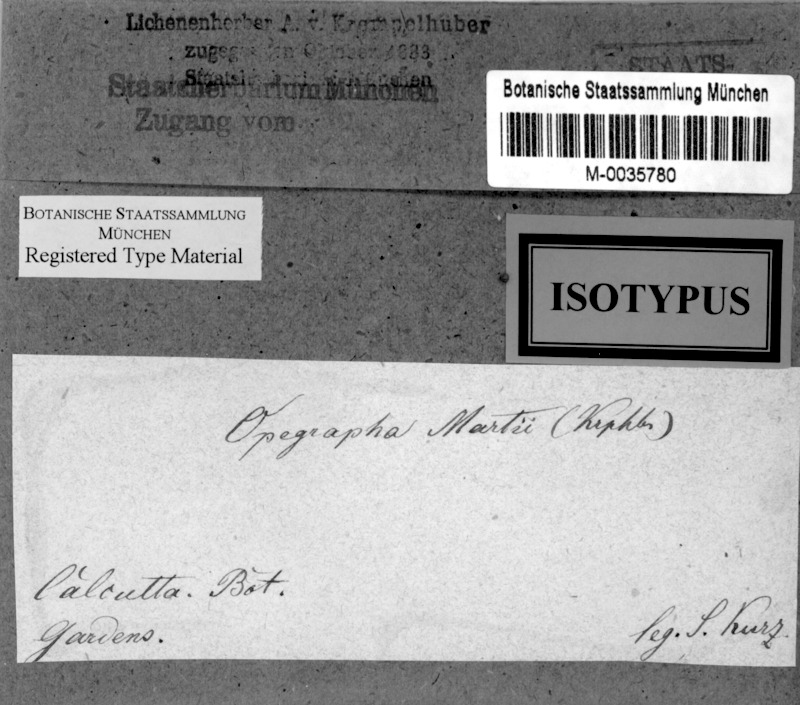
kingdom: Fungi
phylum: Ascomycota
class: Arthoniomycetes
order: Arthoniales
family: Lecanographaceae
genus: Lecanographa
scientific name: Lecanographa martii
